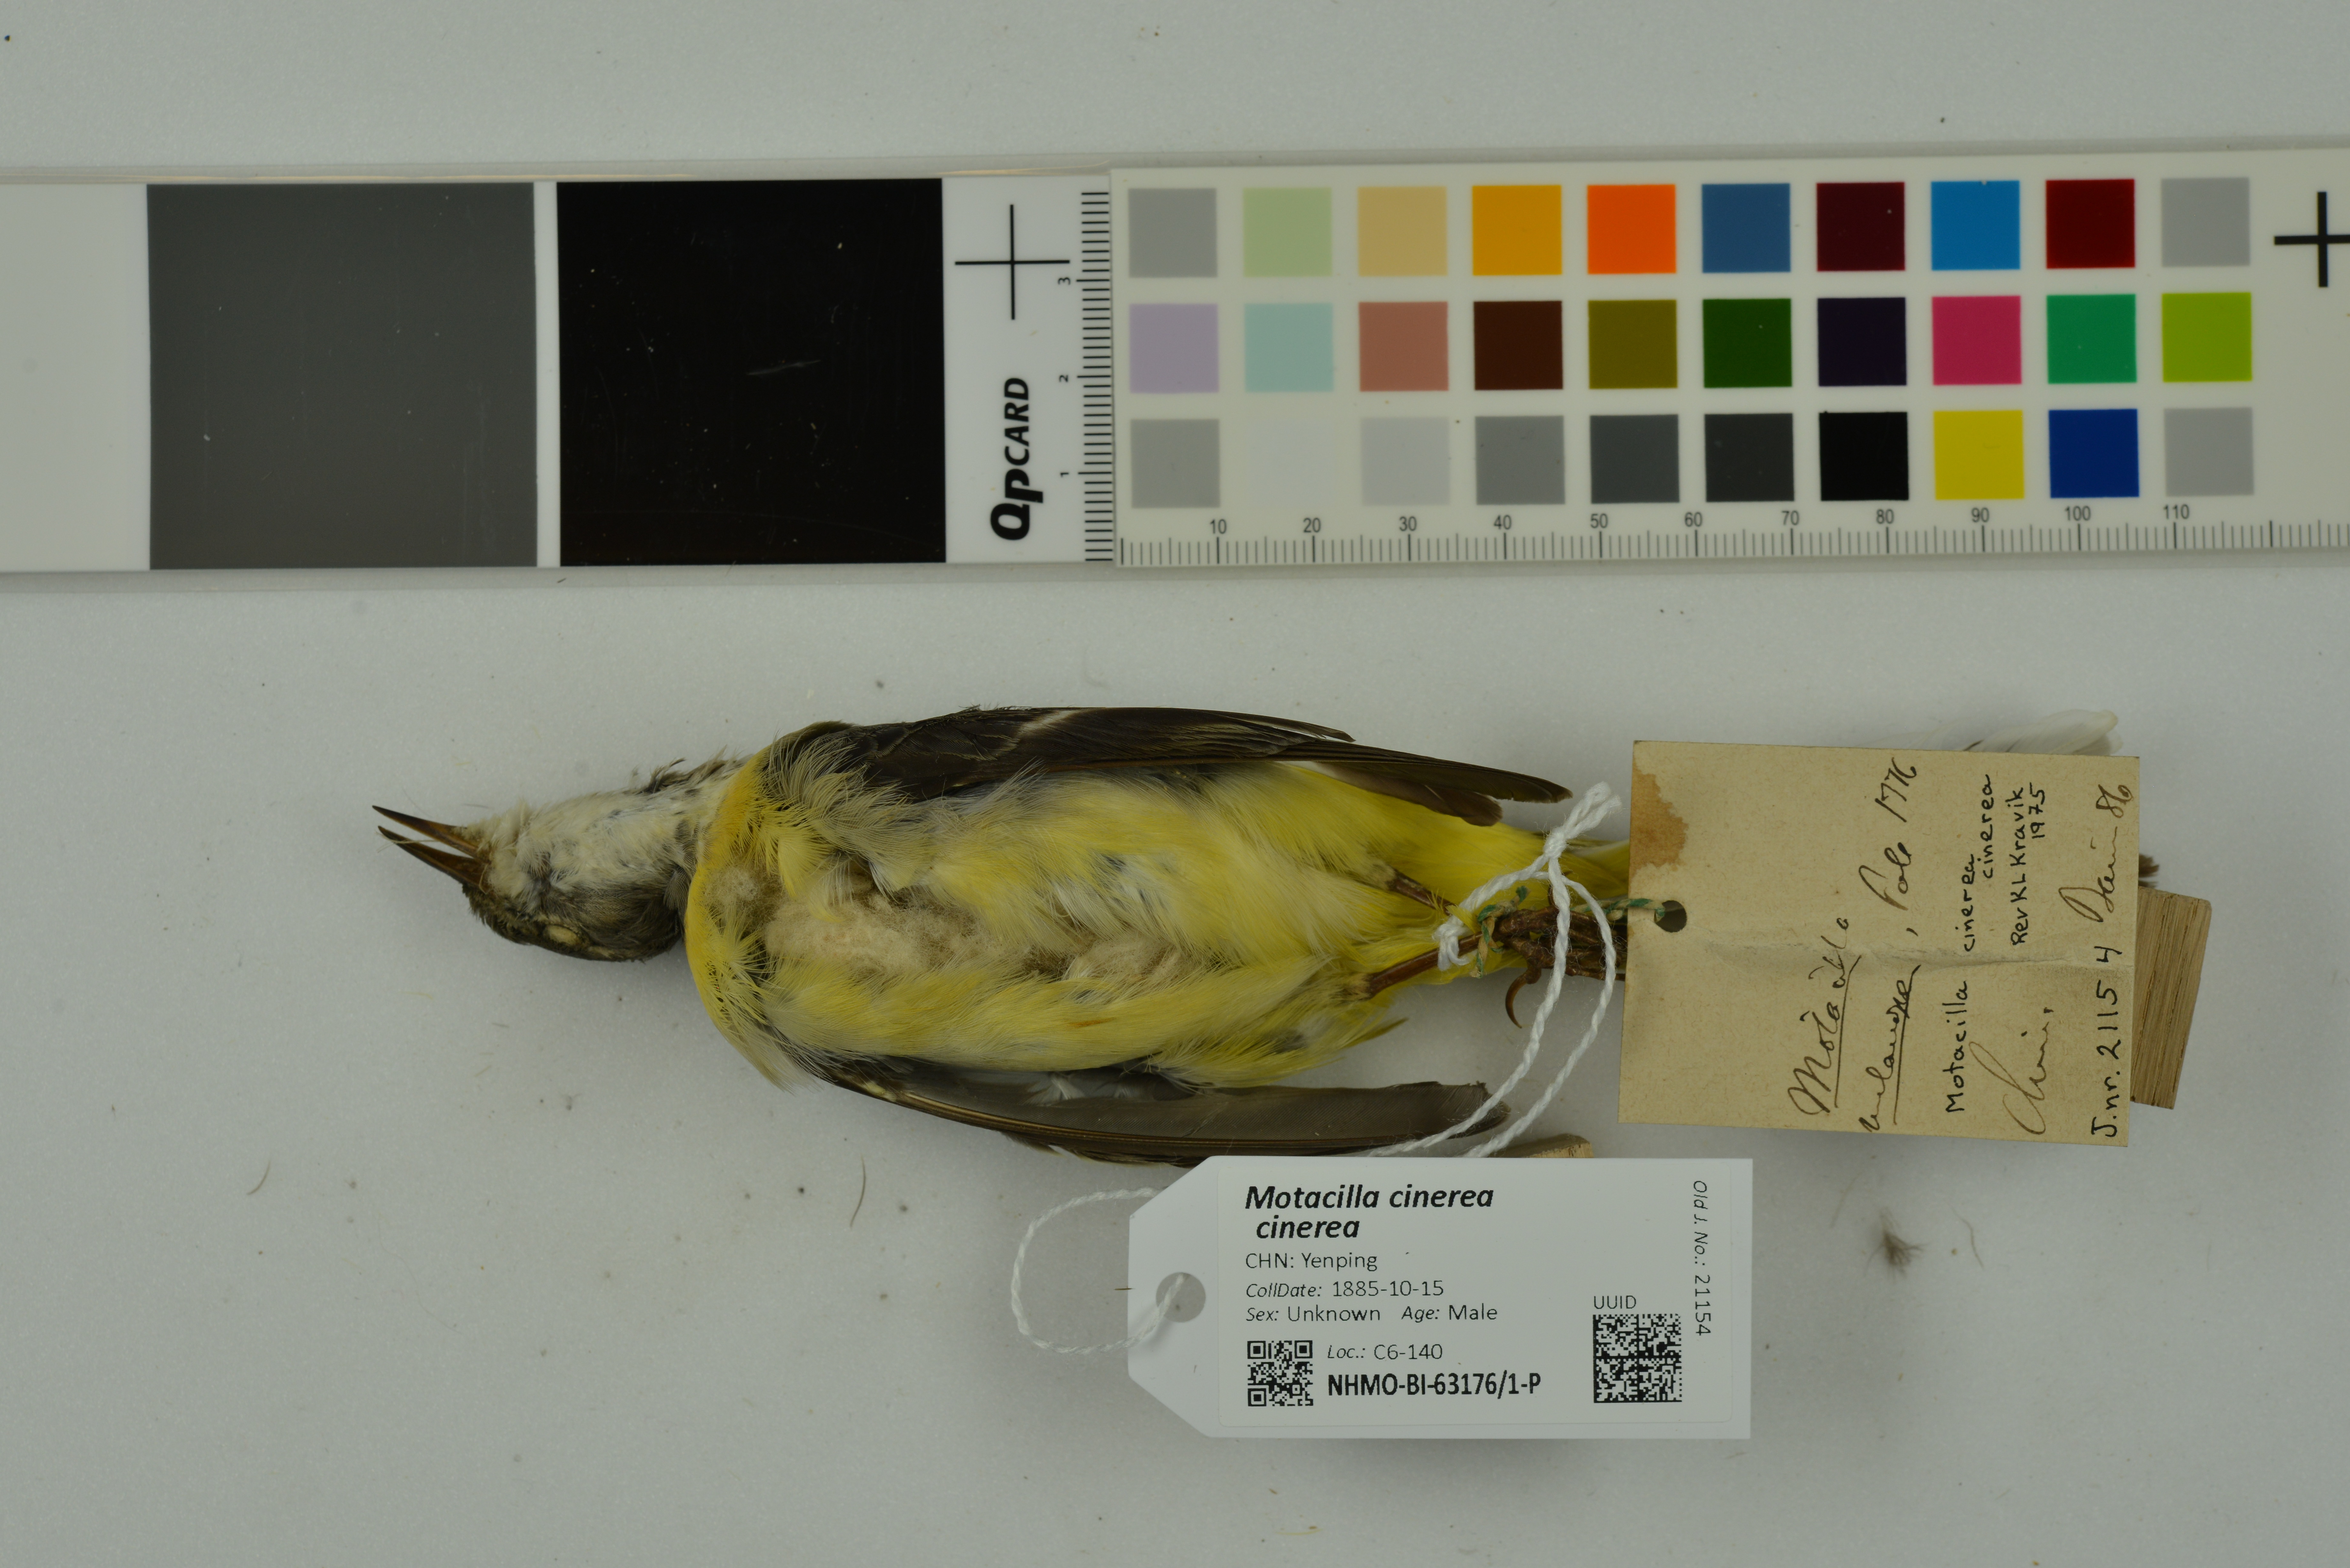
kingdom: Animalia
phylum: Chordata
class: Aves
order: Passeriformes
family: Motacillidae
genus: Motacilla
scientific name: Motacilla cinerea
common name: Grey wagtail
